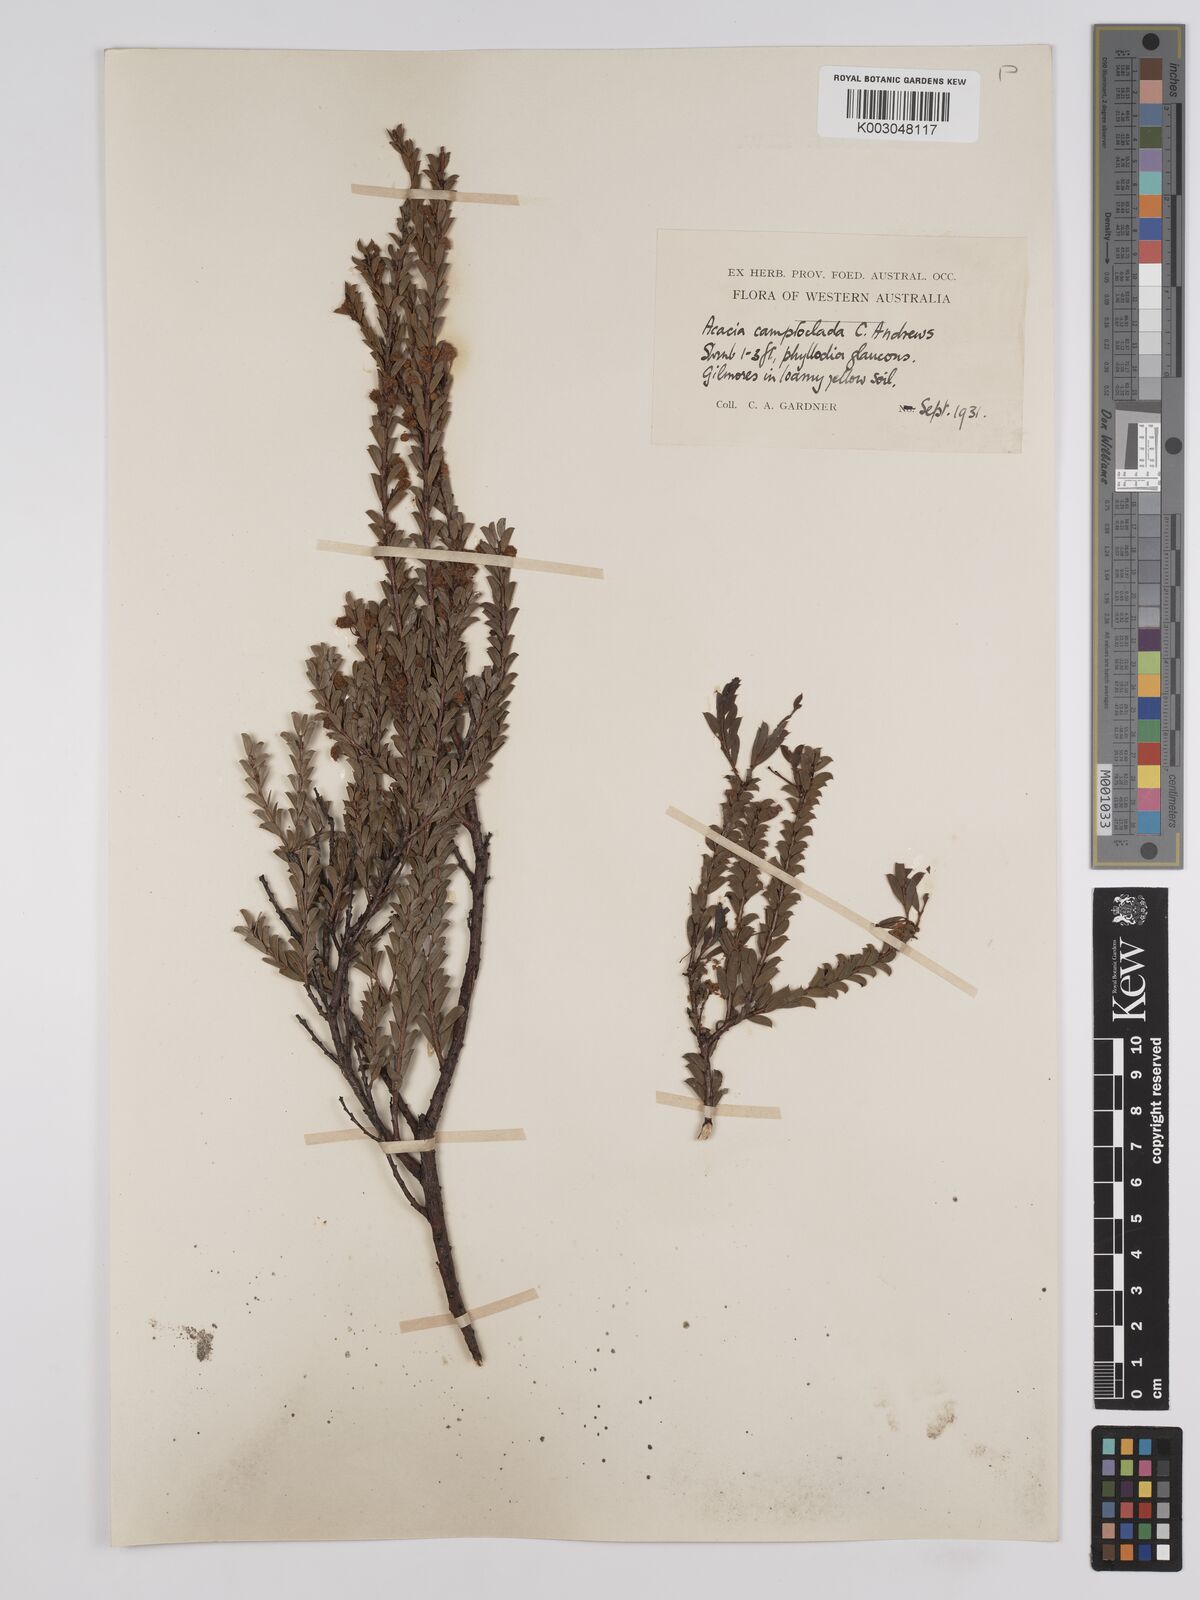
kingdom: Plantae
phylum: Tracheophyta
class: Magnoliopsida
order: Fabales
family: Fabaceae
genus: Acacia
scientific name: Acacia camptoclada
